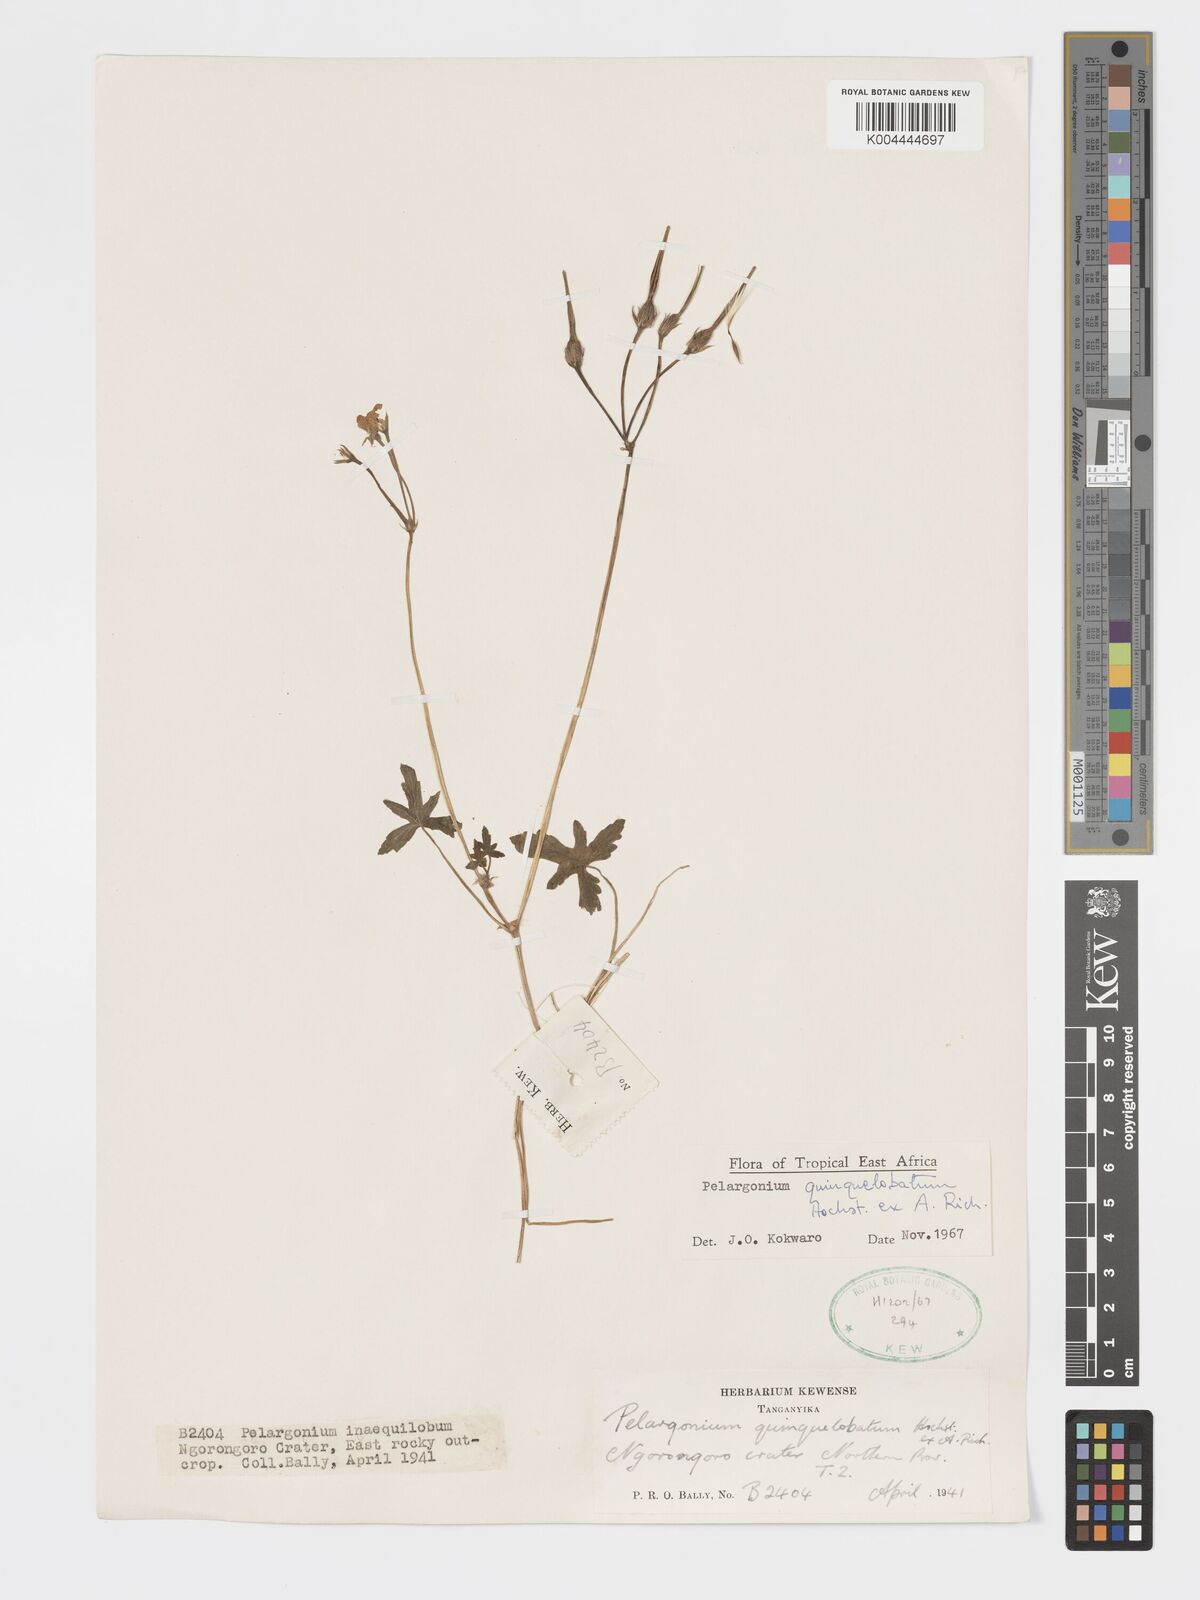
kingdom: Plantae
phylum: Tracheophyta
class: Magnoliopsida
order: Geraniales
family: Geraniaceae
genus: Pelargonium
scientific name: Pelargonium quinquelobatum
